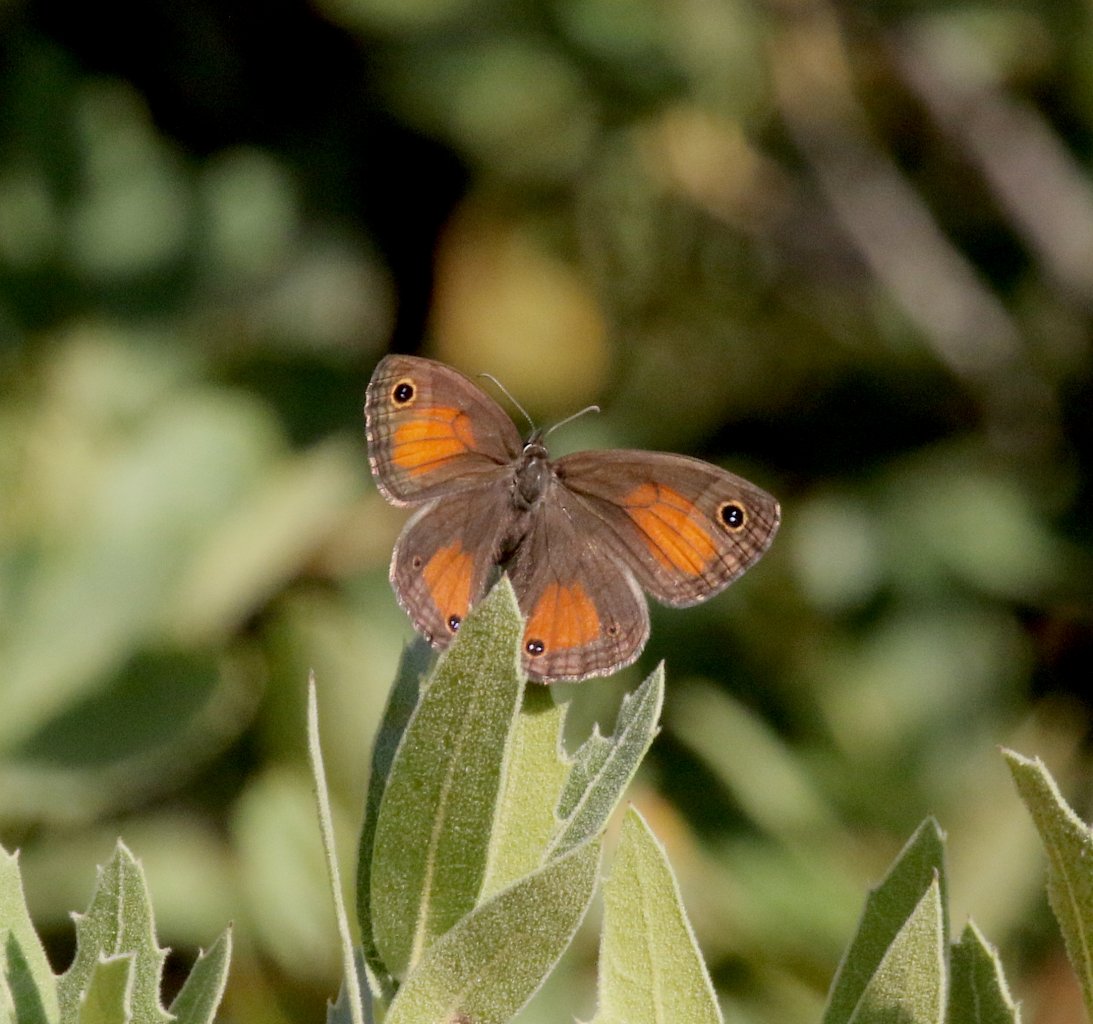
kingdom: Animalia
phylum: Arthropoda
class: Insecta
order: Lepidoptera
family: Nymphalidae
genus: Euptychia
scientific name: Euptychia rubricata
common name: Red Satyr
